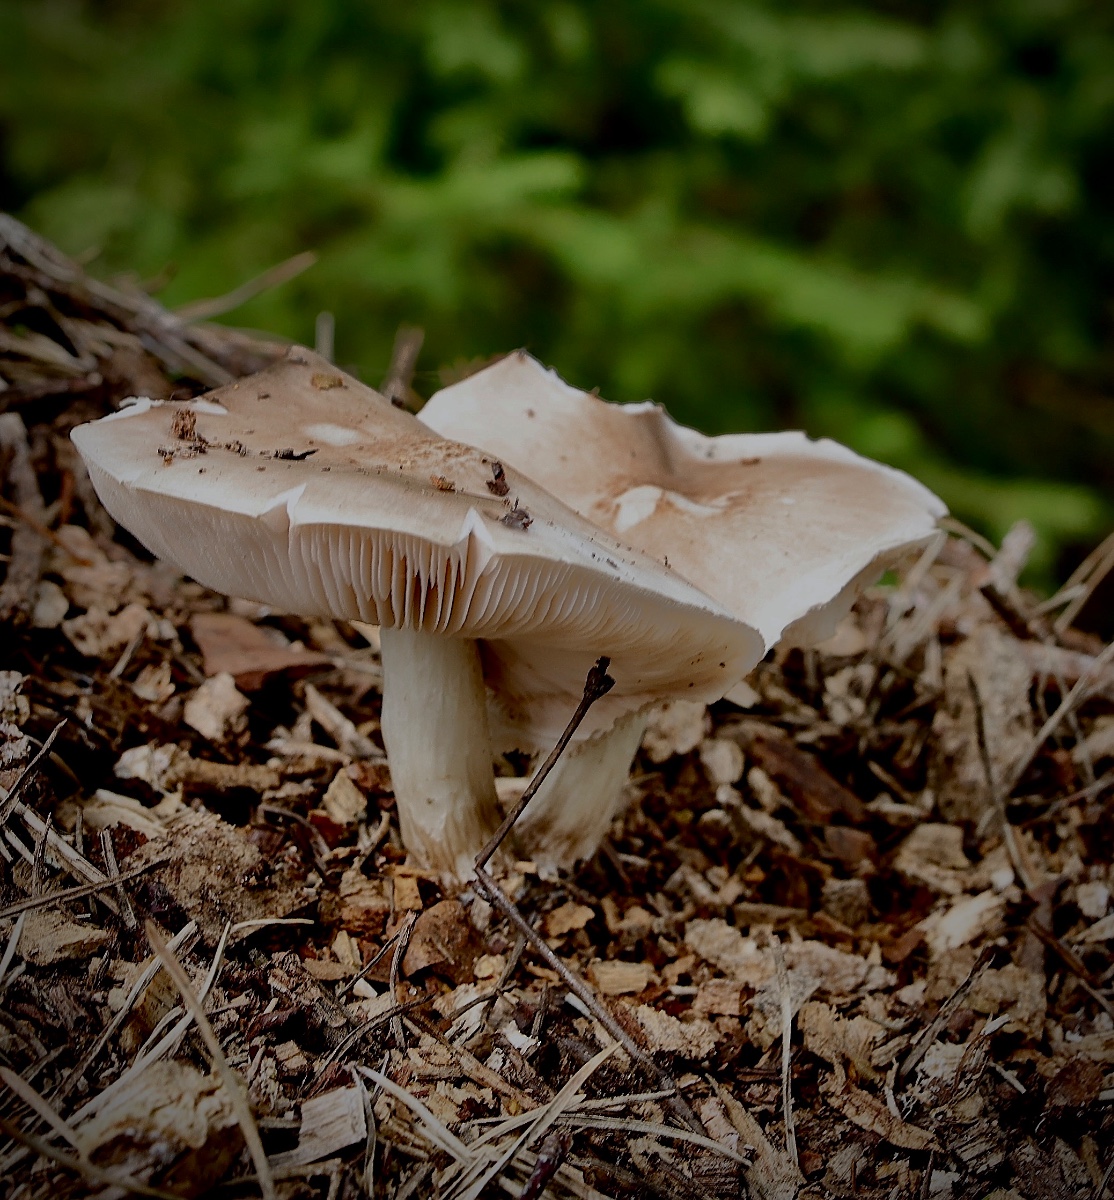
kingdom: Fungi
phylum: Basidiomycota
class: Agaricomycetes
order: Agaricales
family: Pluteaceae
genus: Pluteus
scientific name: Pluteus petasatus
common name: savsmulds-skærmhat
